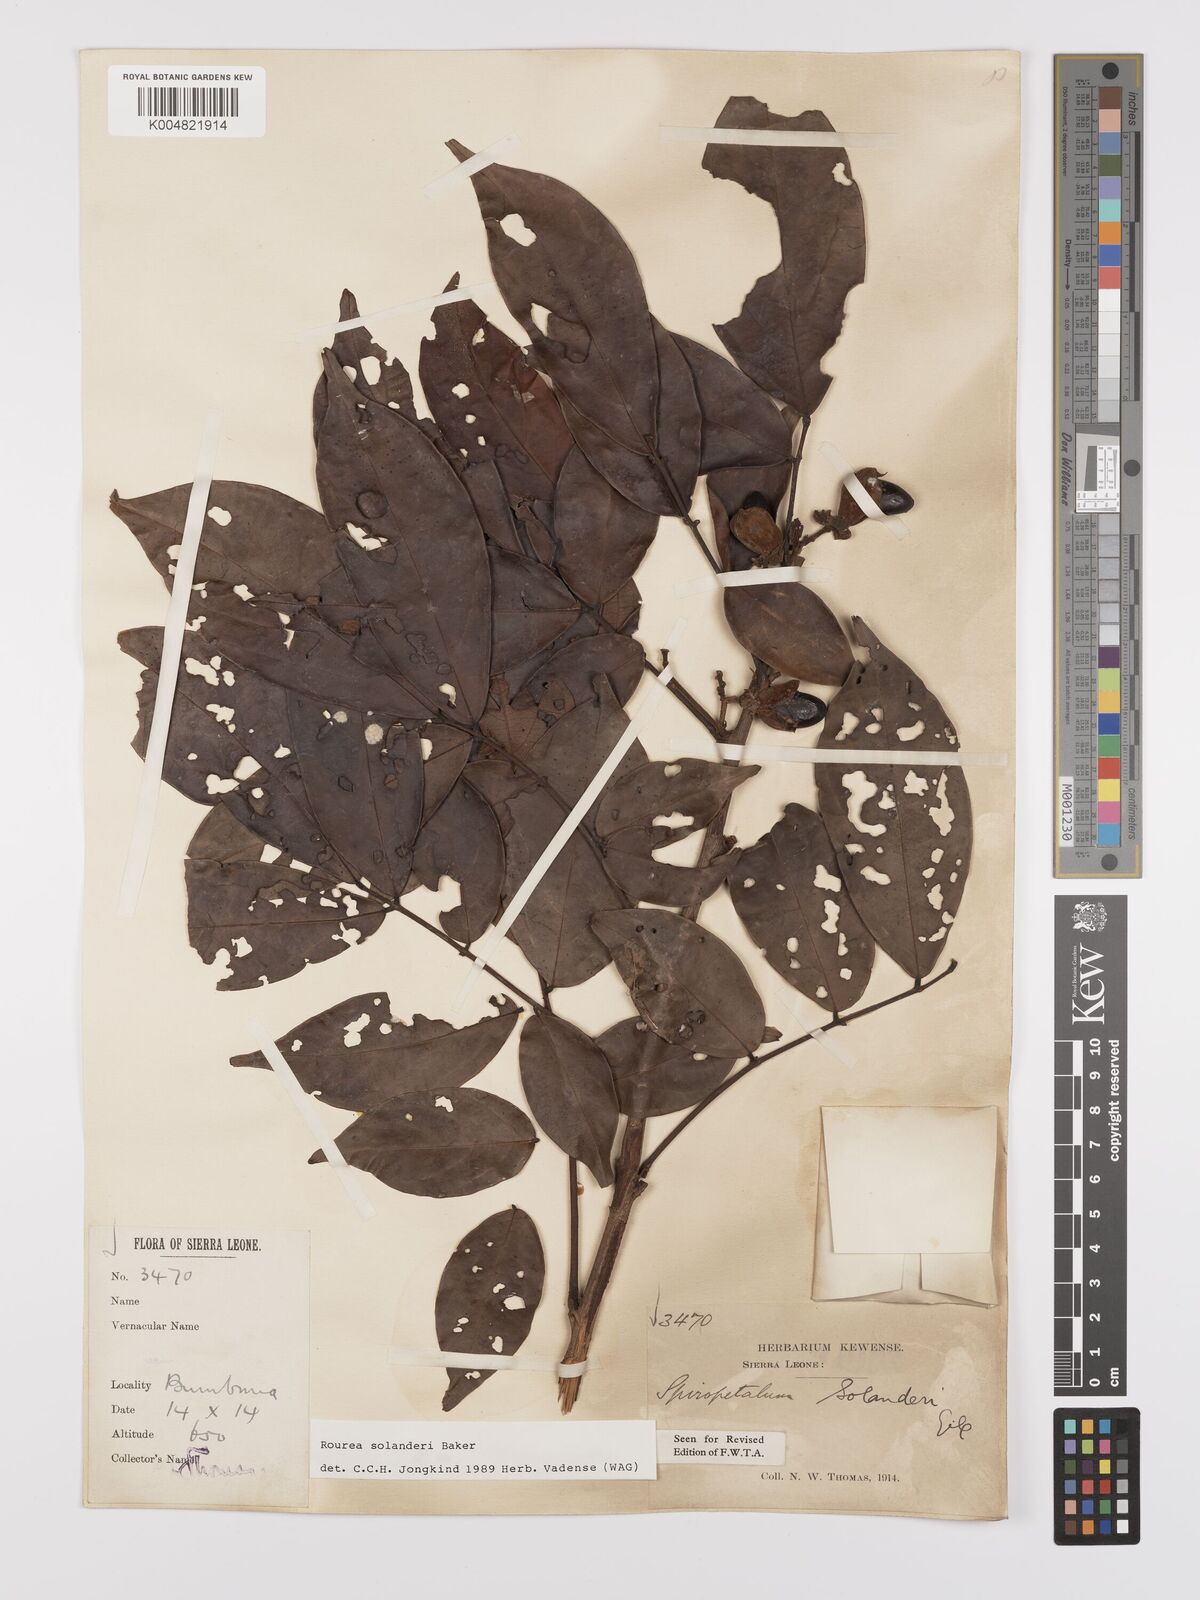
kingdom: Plantae
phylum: Tracheophyta
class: Magnoliopsida
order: Oxalidales
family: Connaraceae
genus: Rourea
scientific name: Rourea solanderi
